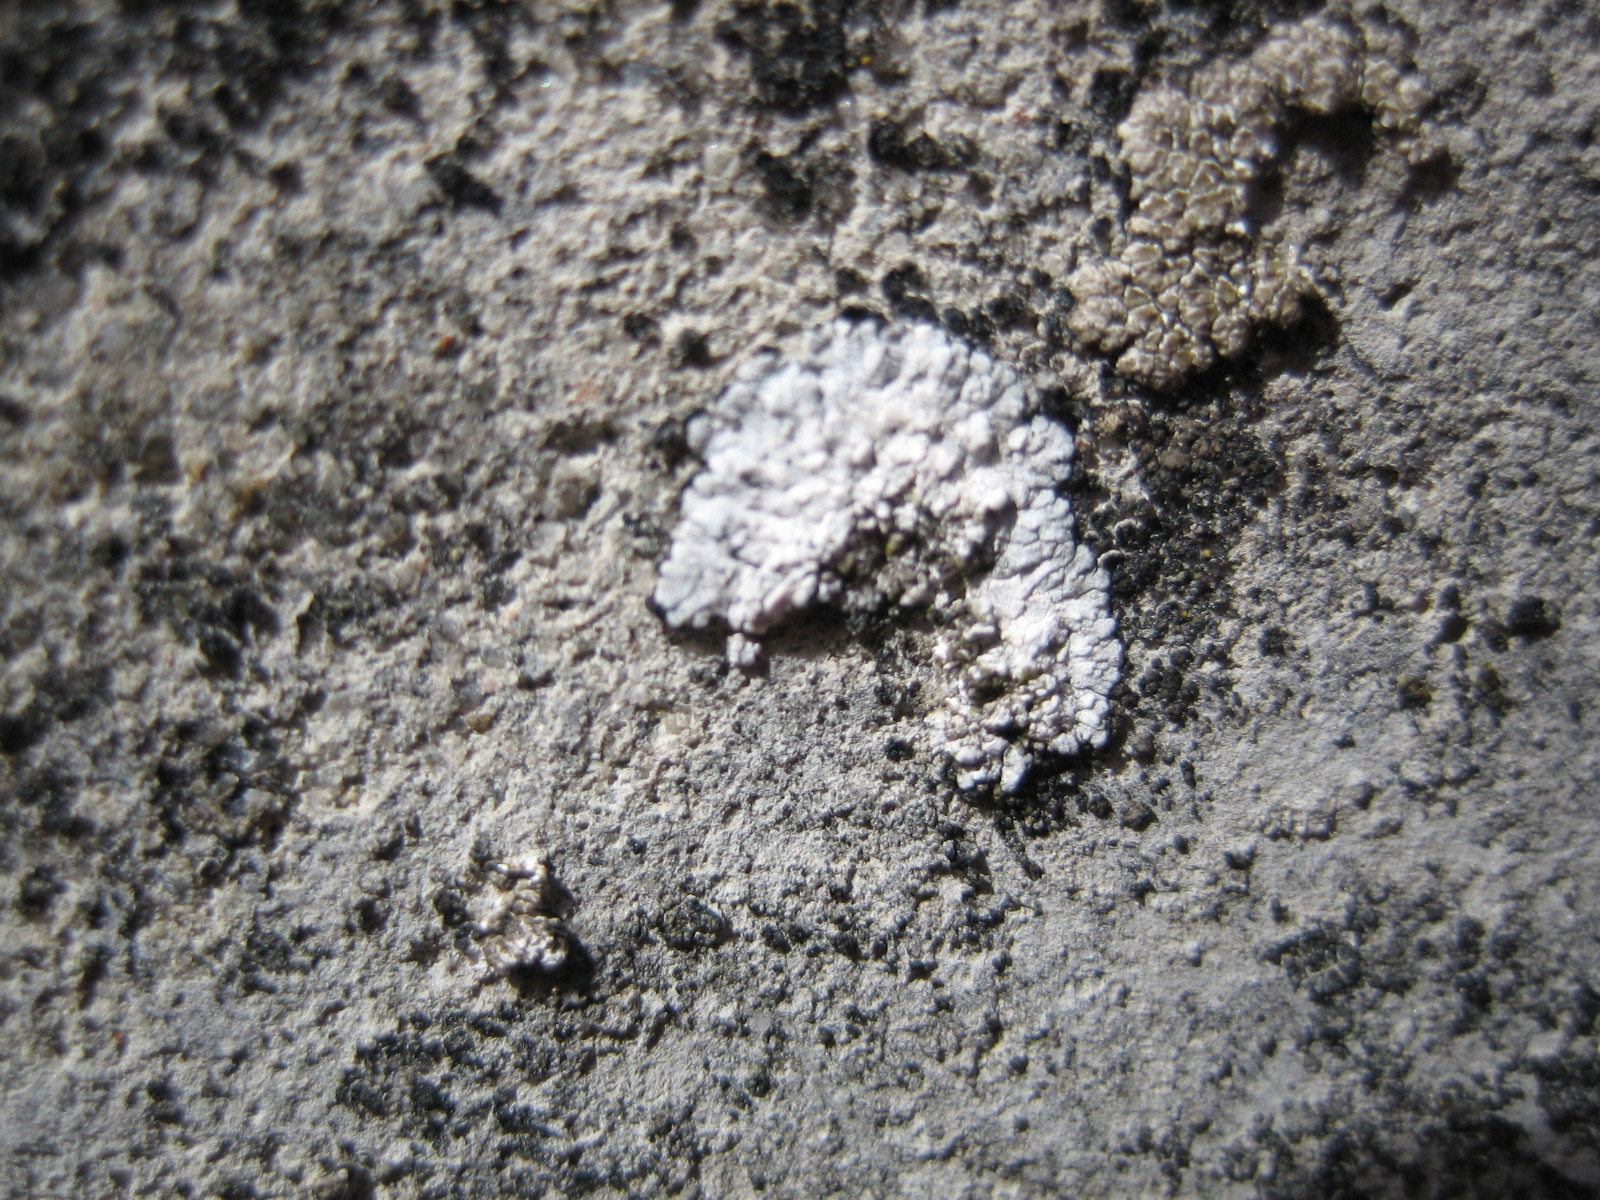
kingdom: Fungi
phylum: Ascomycota
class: Lecanoromycetes
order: Teloschistales
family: Teloschistaceae
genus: Kuettlingeria
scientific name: Kuettlingeria teicholyta
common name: grå orangelav
